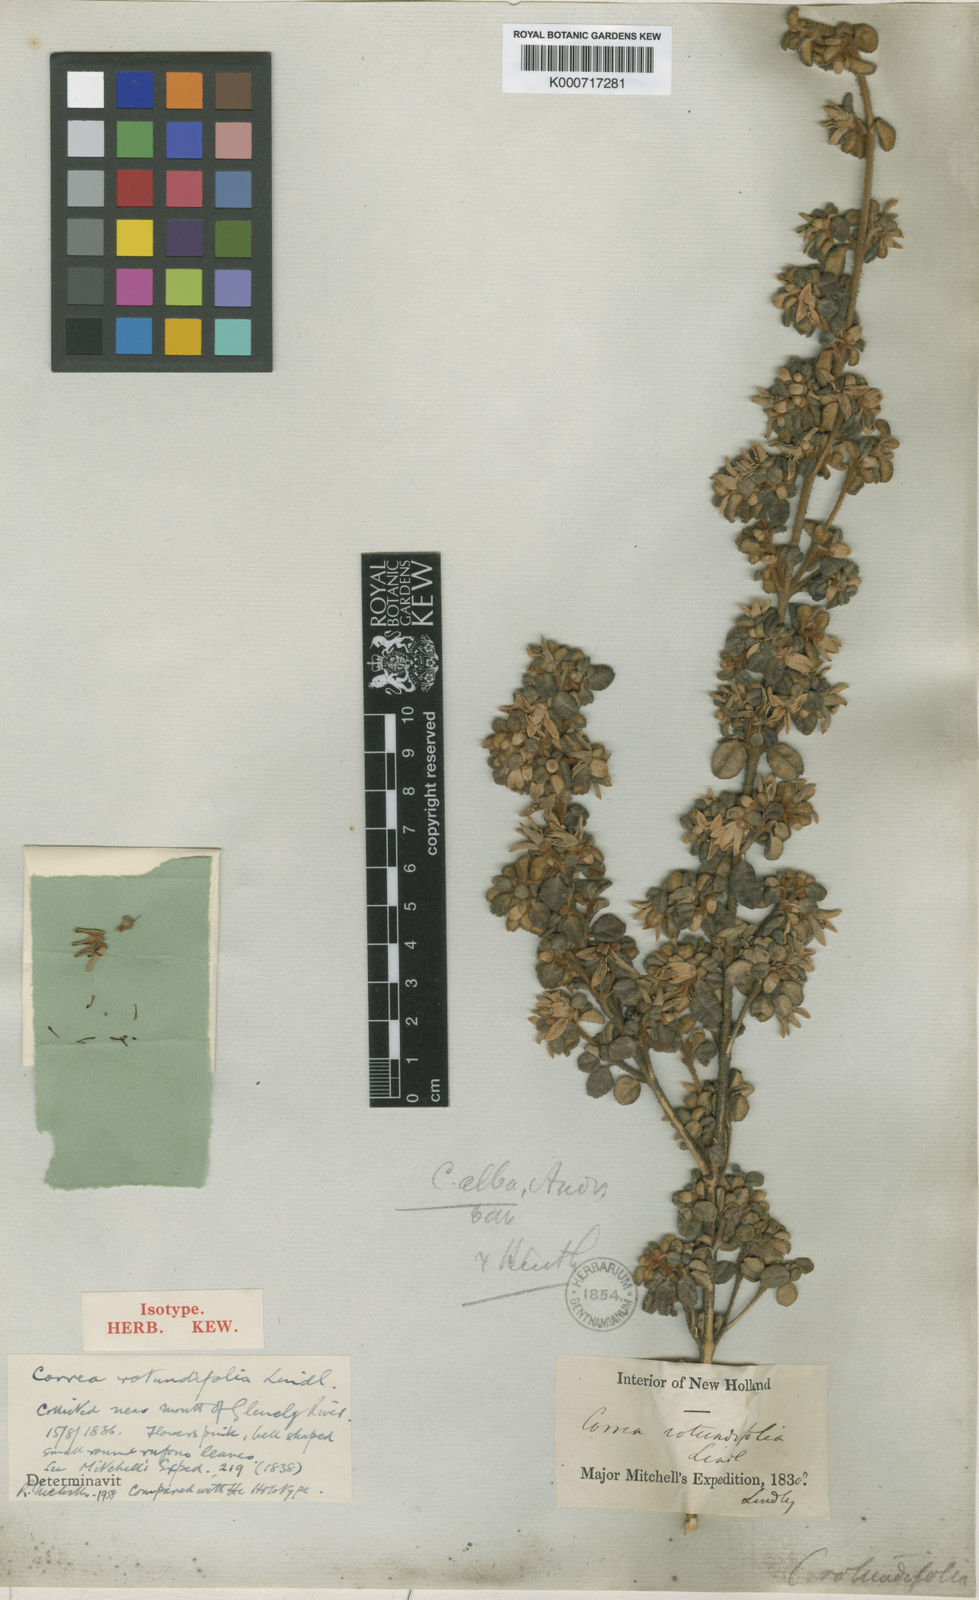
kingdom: Plantae
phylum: Tracheophyta
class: Magnoliopsida
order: Sapindales
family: Rutaceae
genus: Correa
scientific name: Correa alba
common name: White correa
